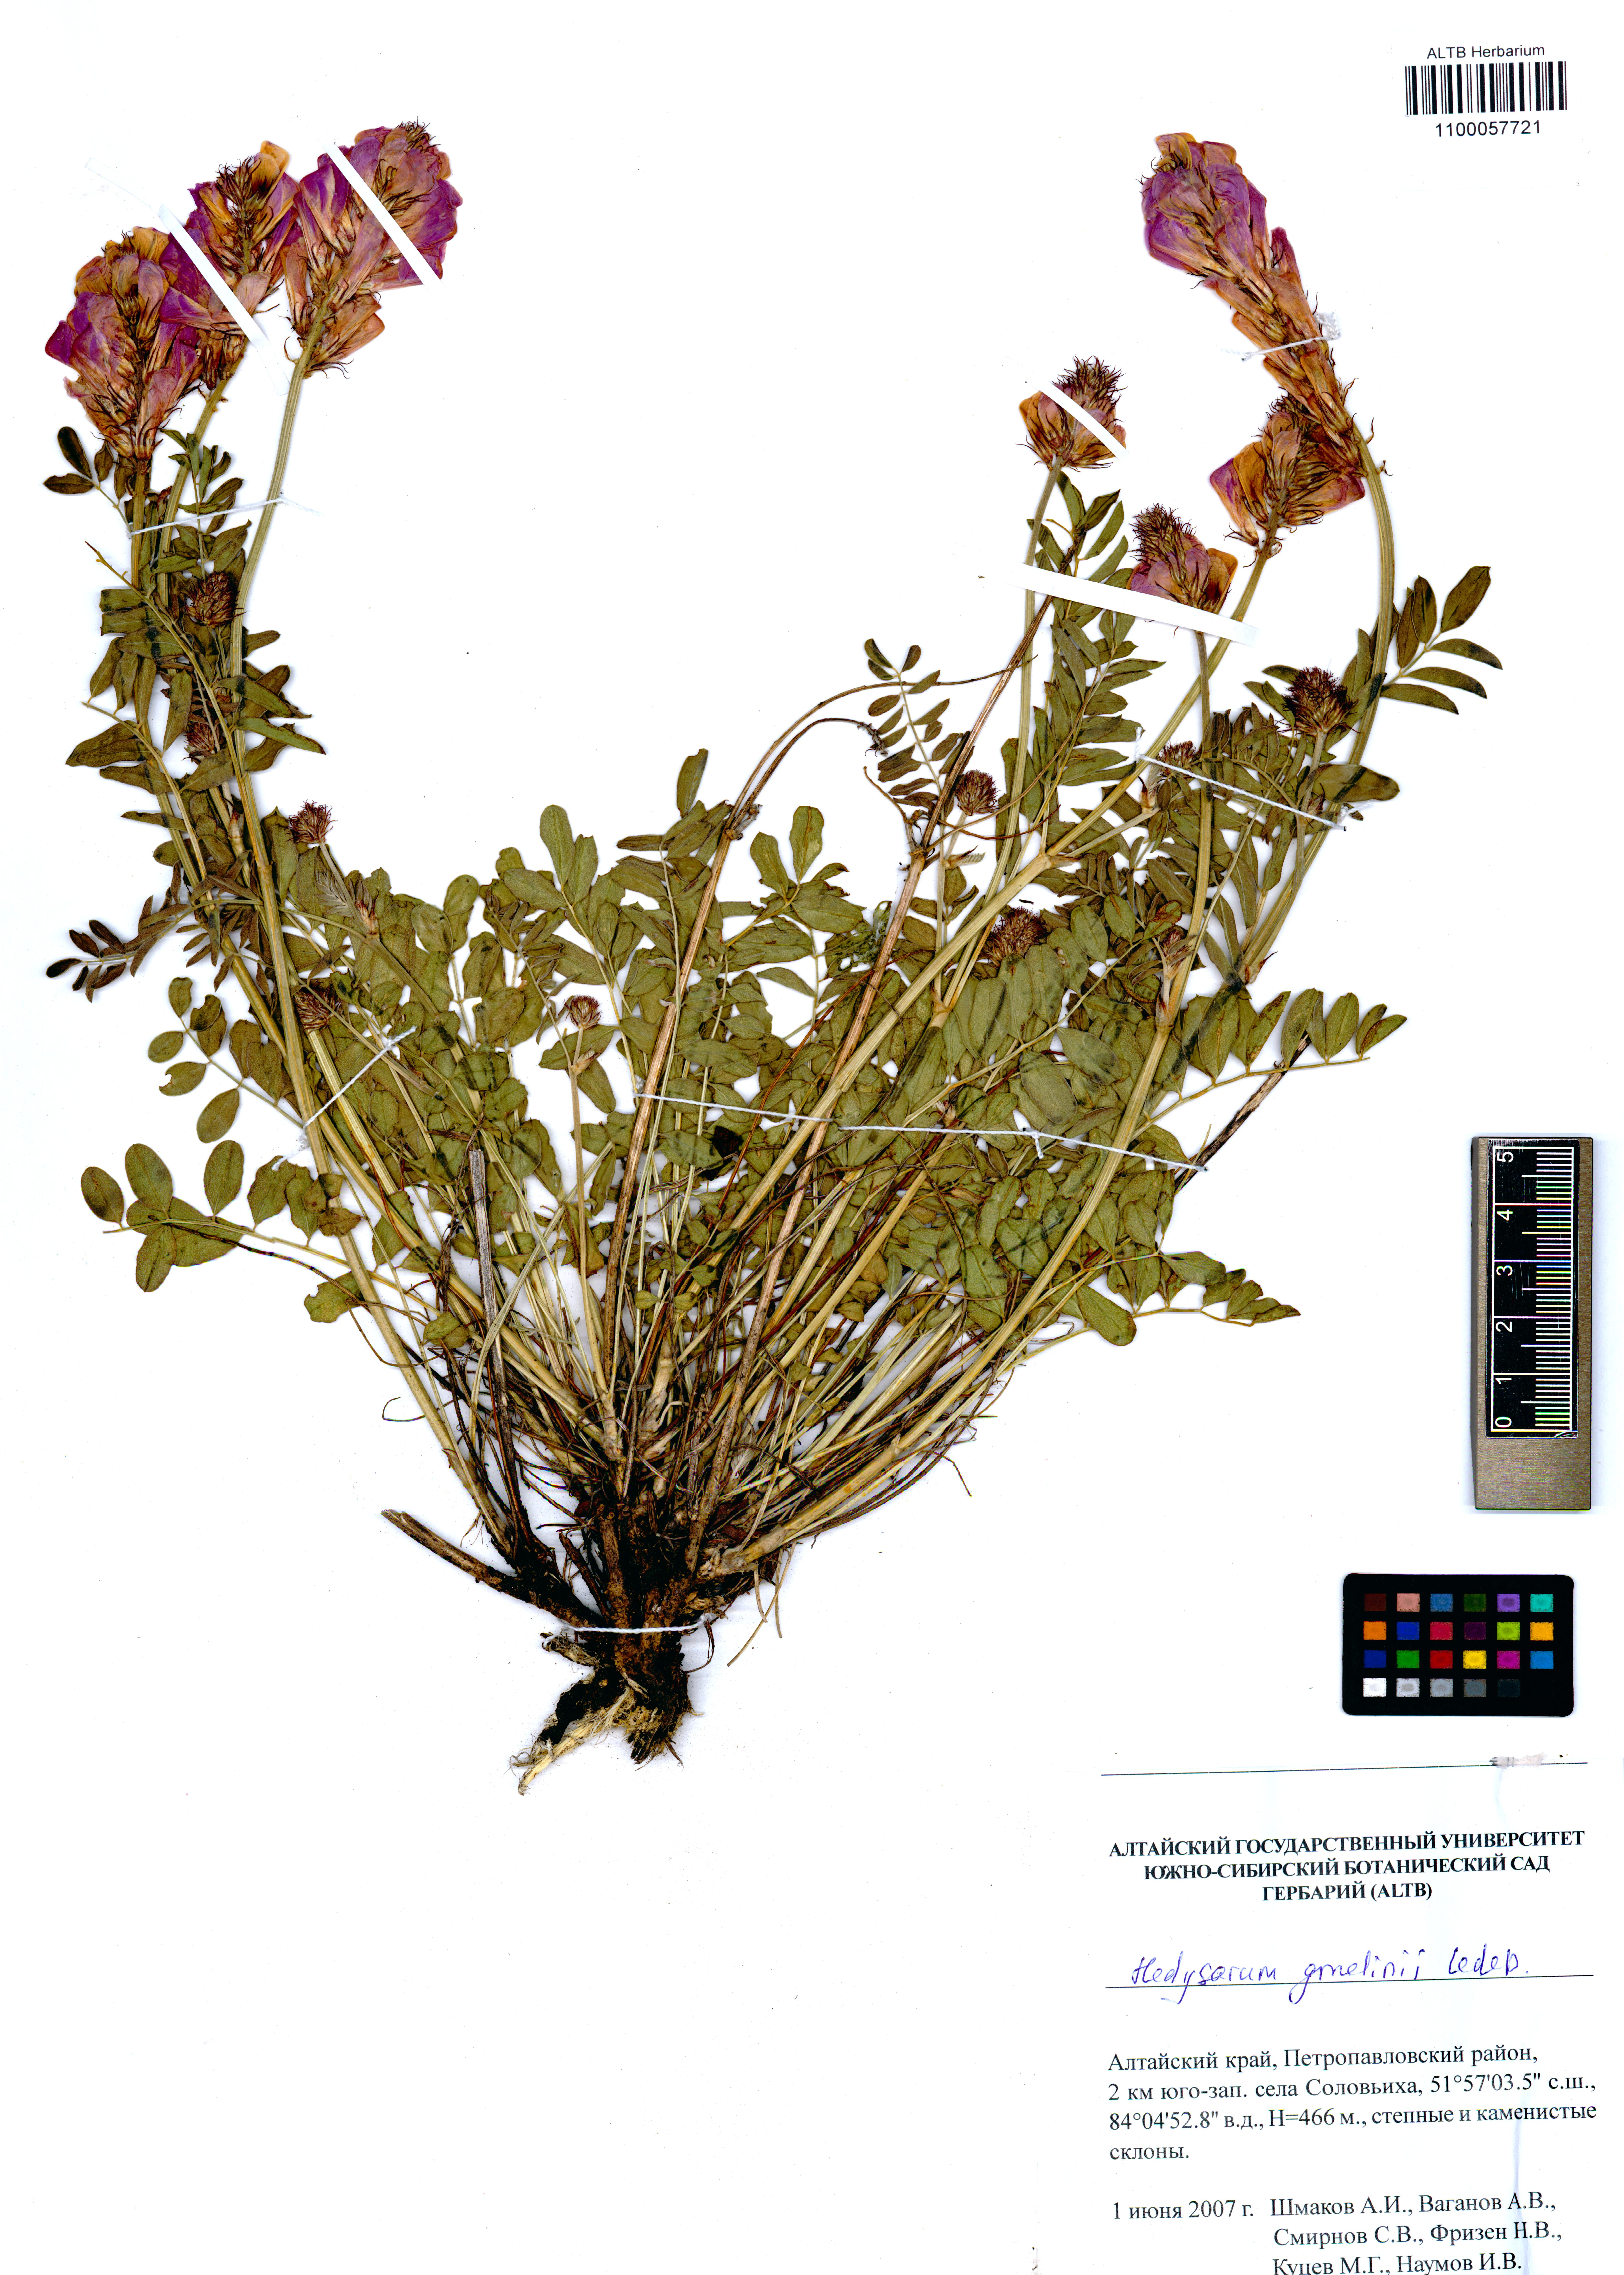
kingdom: Plantae
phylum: Tracheophyta
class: Magnoliopsida
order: Fabales
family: Fabaceae
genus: Hedysarum
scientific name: Hedysarum gmelinii
